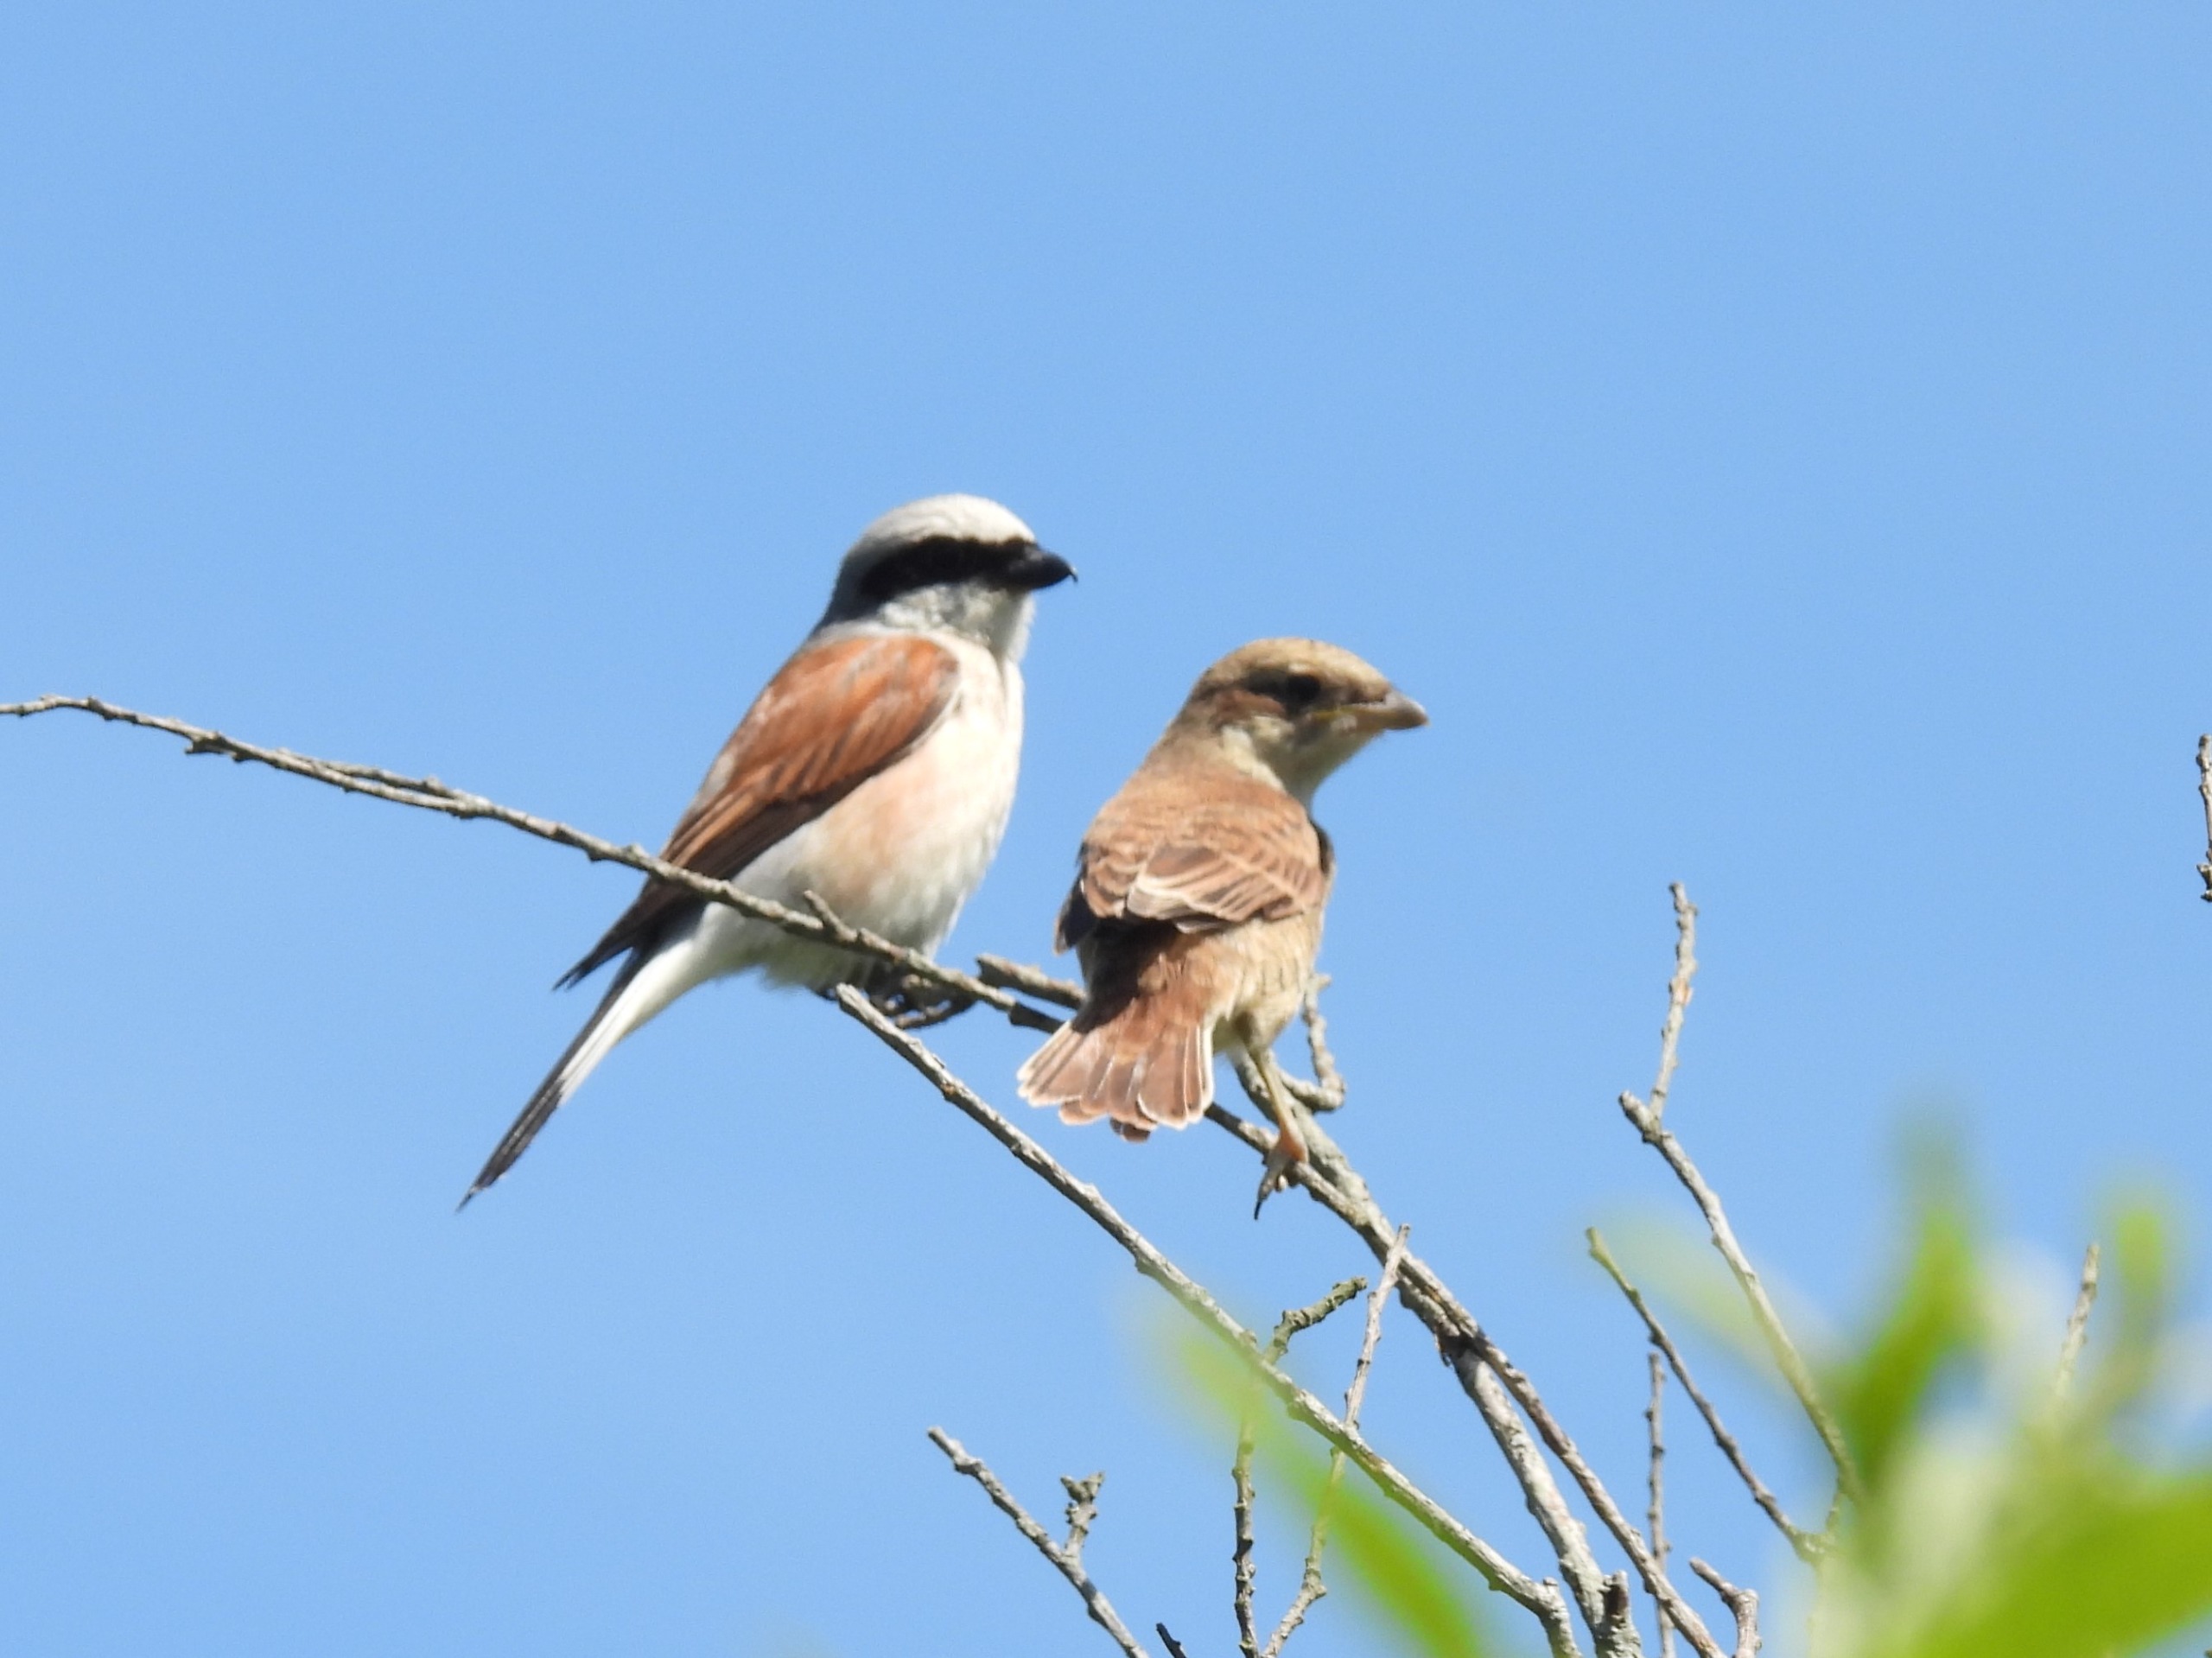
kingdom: Animalia
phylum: Chordata
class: Aves
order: Passeriformes
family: Laniidae
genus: Lanius
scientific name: Lanius collurio
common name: Rødrygget tornskade
